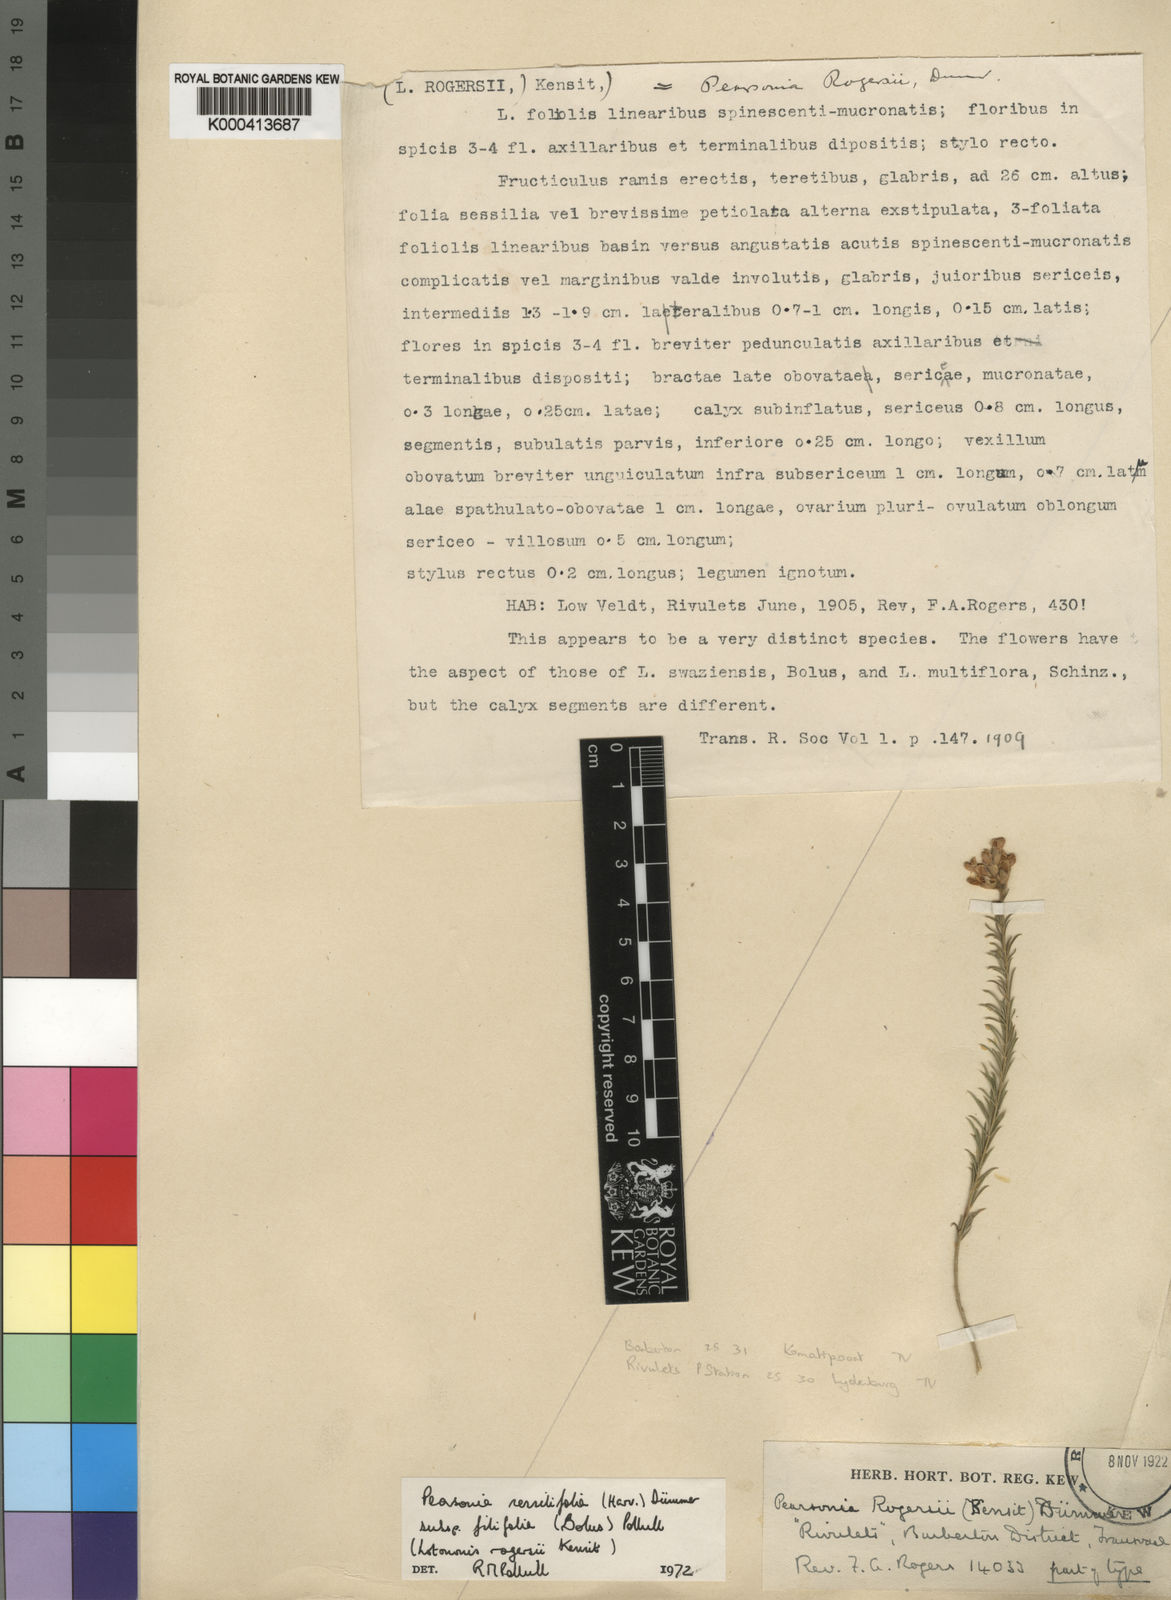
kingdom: Plantae
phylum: Tracheophyta
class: Magnoliopsida
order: Fabales
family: Fabaceae
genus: Pearsonia
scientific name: Pearsonia sessilifolia
